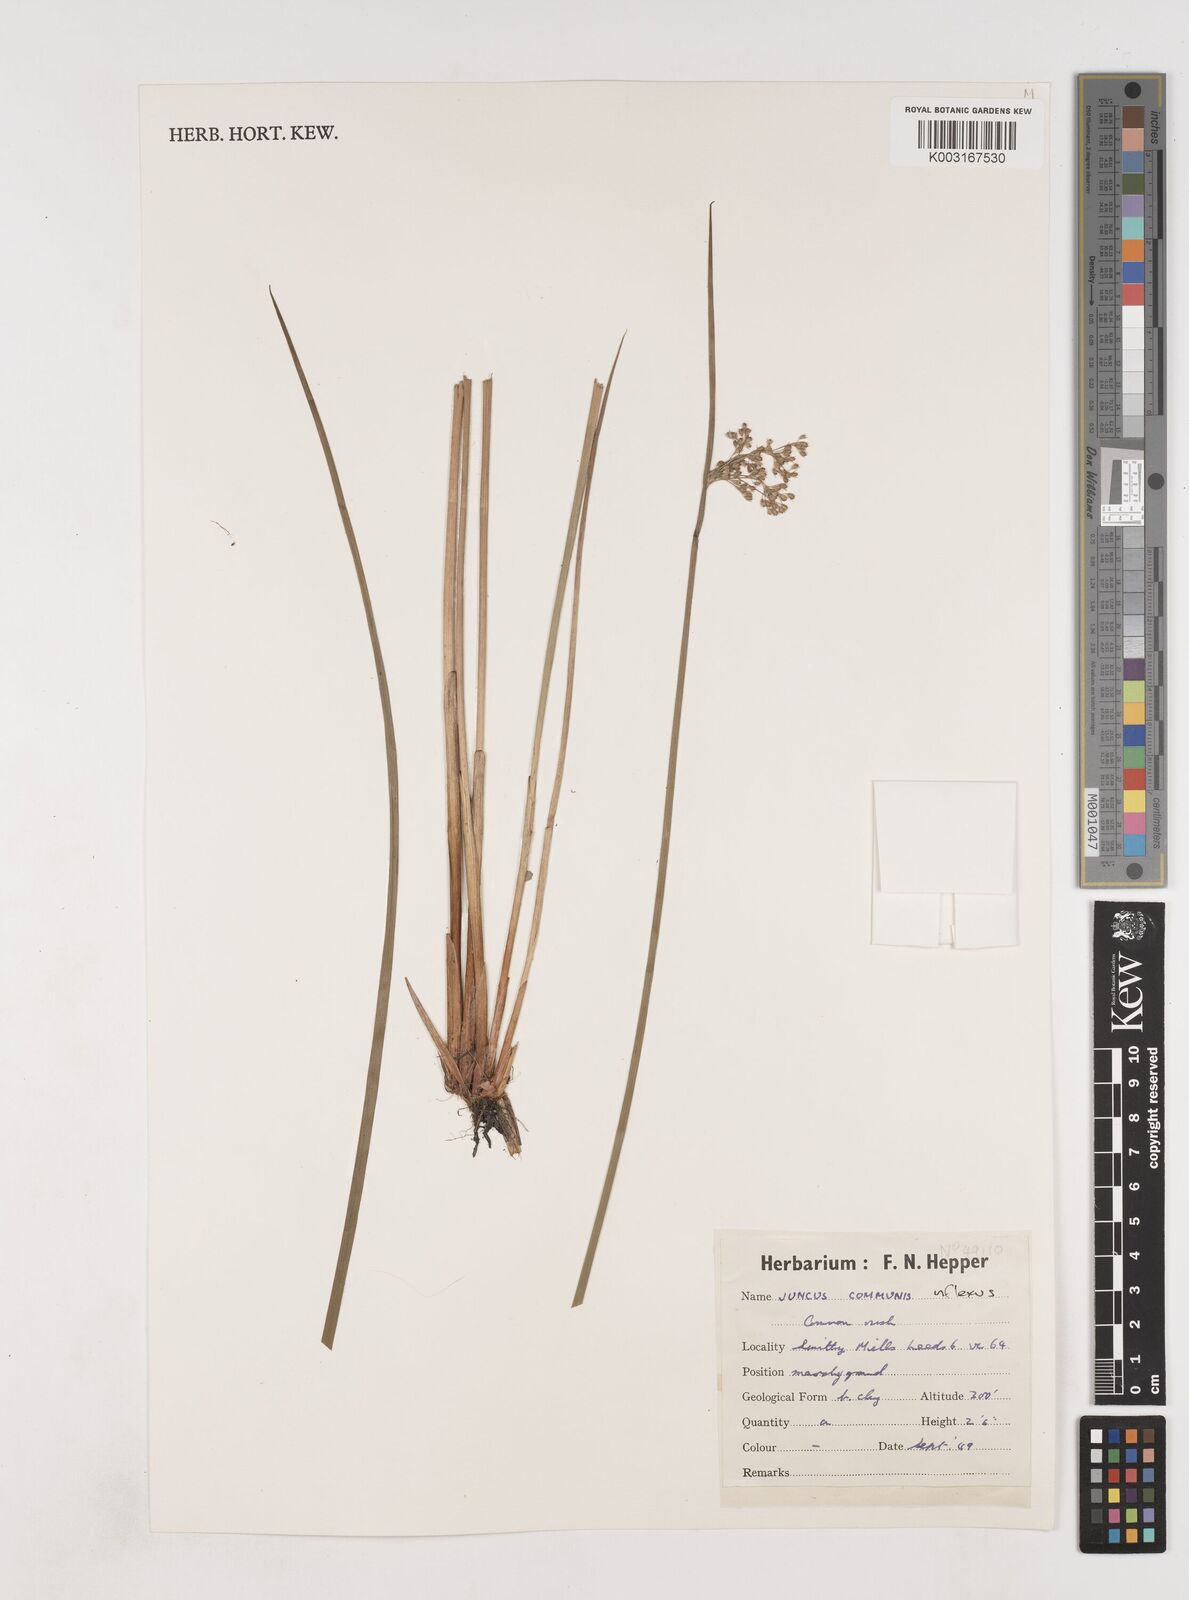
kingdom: Plantae
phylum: Tracheophyta
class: Liliopsida
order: Poales
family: Juncaceae
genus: Juncus
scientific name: Juncus inflexus
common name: Hard rush
